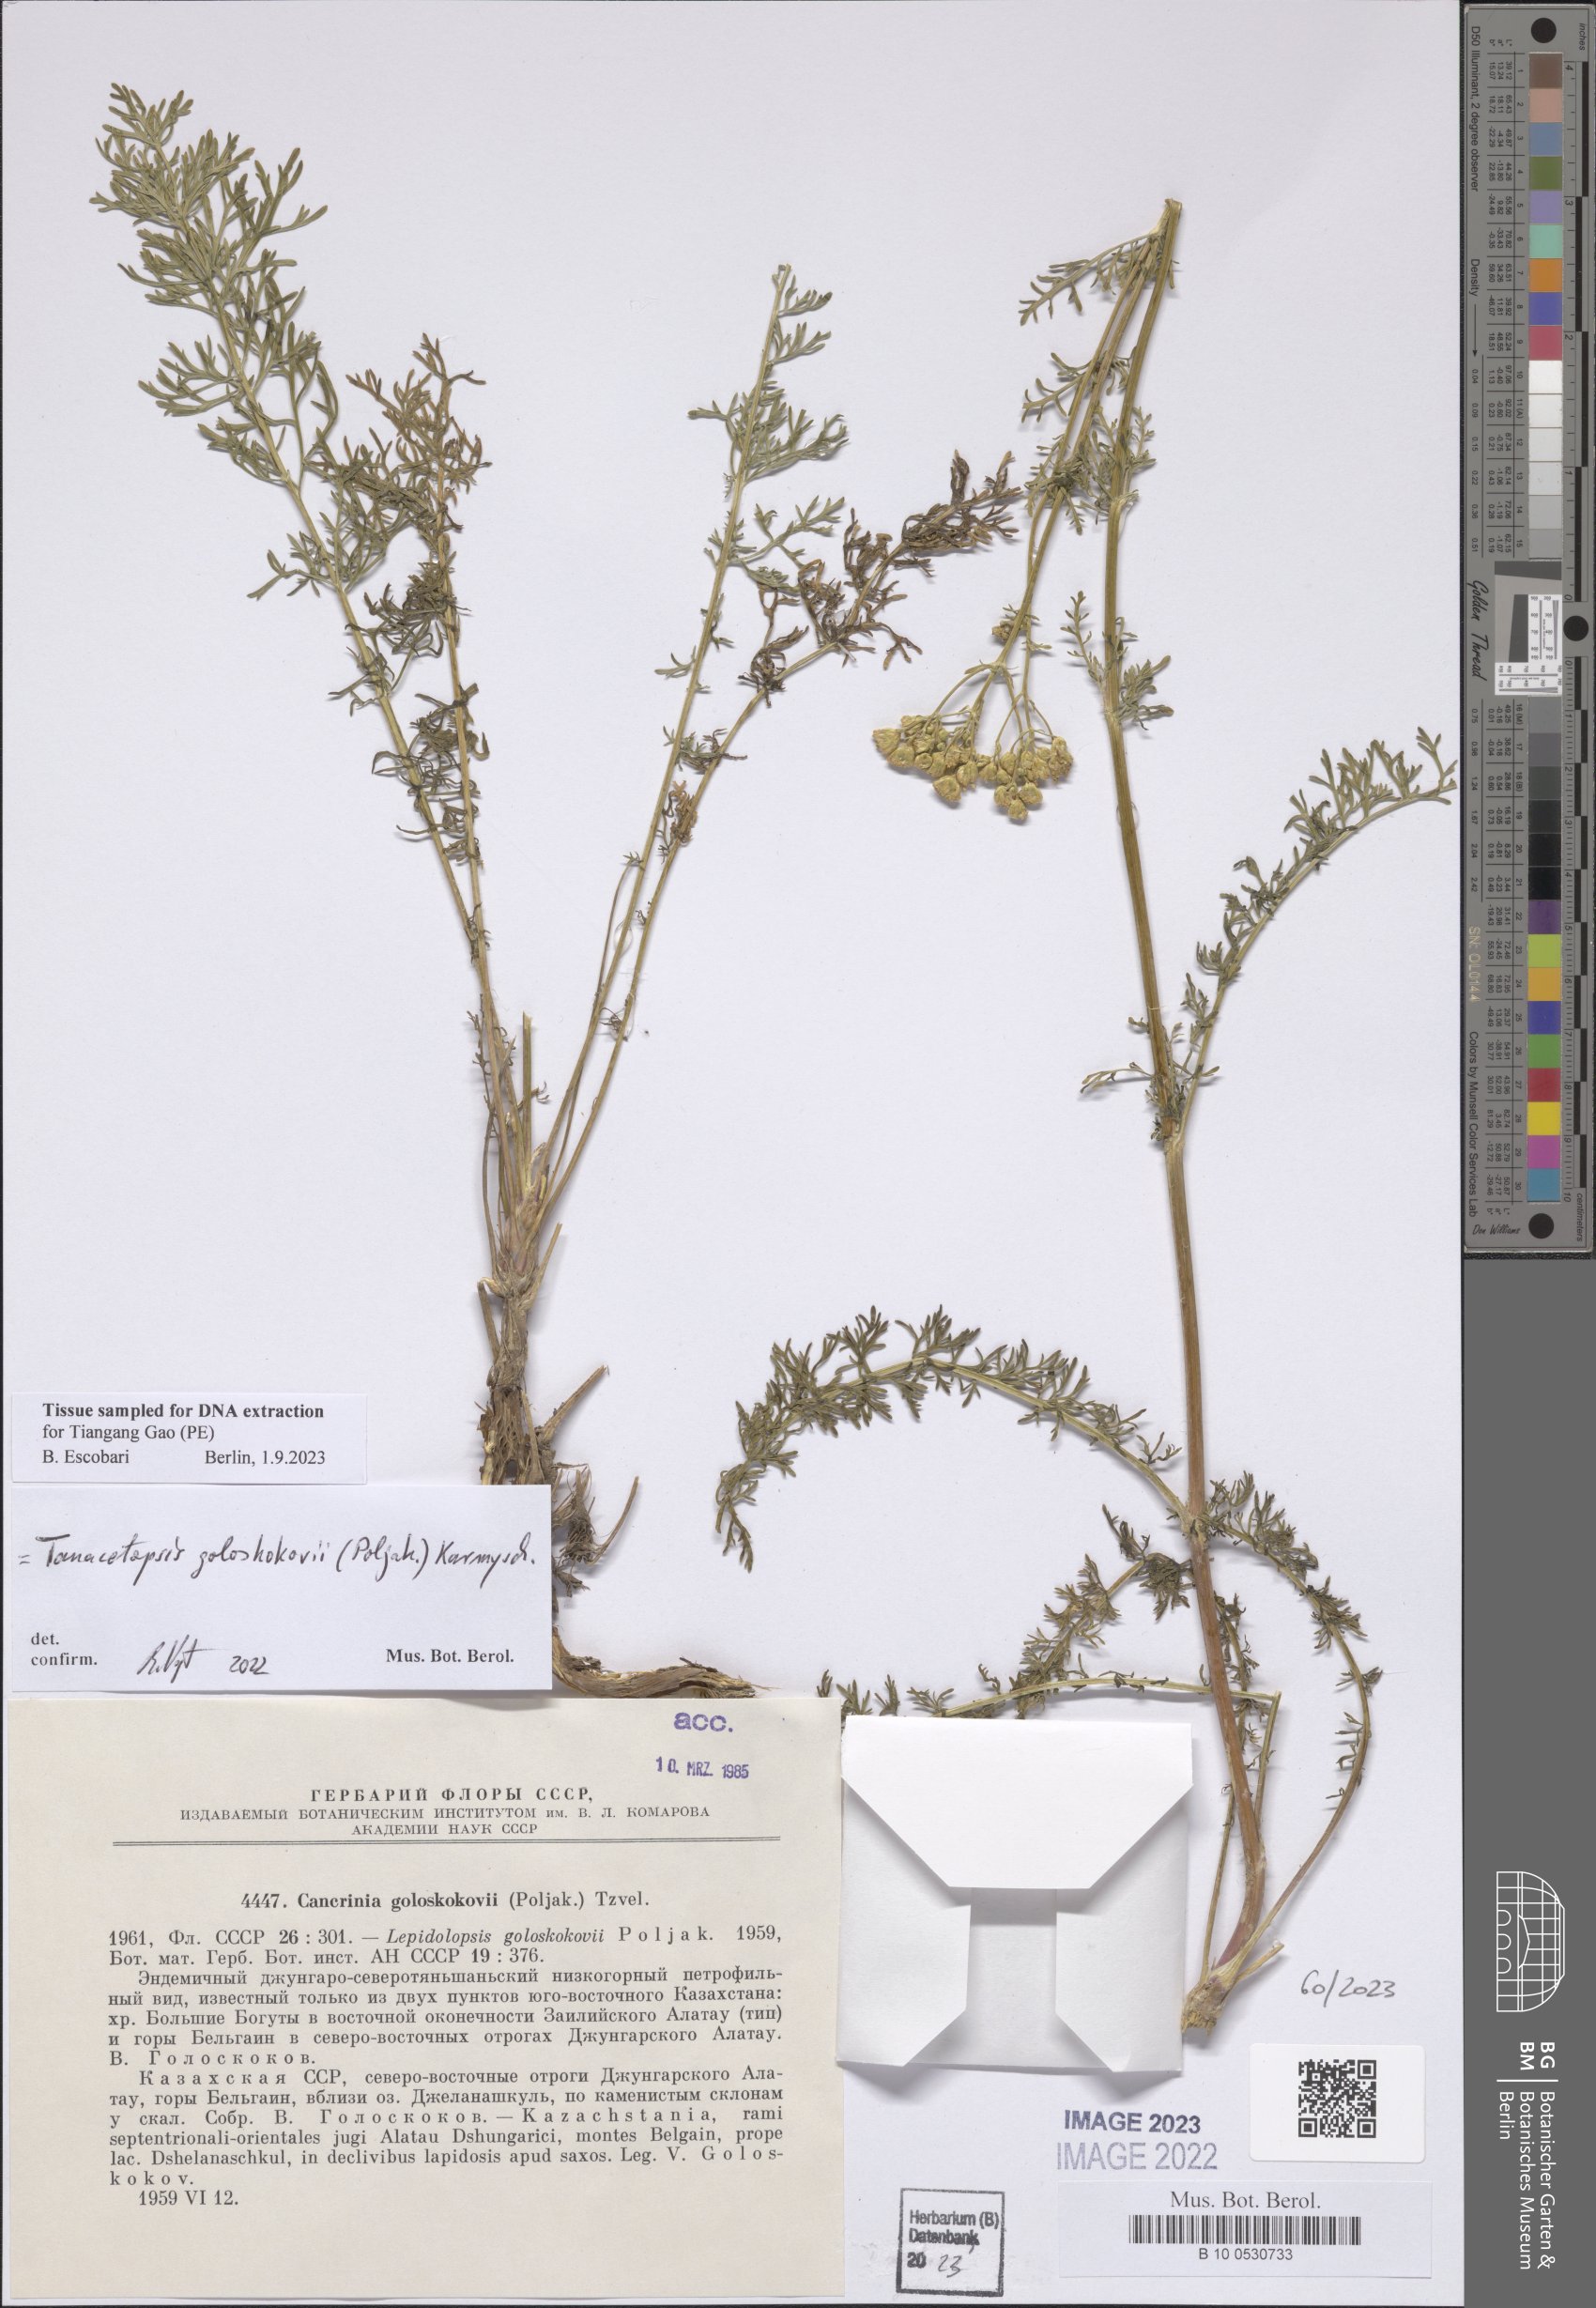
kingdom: Plantae
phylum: Tracheophyta
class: Magnoliopsida
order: Asterales
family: Asteraceae
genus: Tanacetopsis
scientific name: Tanacetopsis goloskokovii
